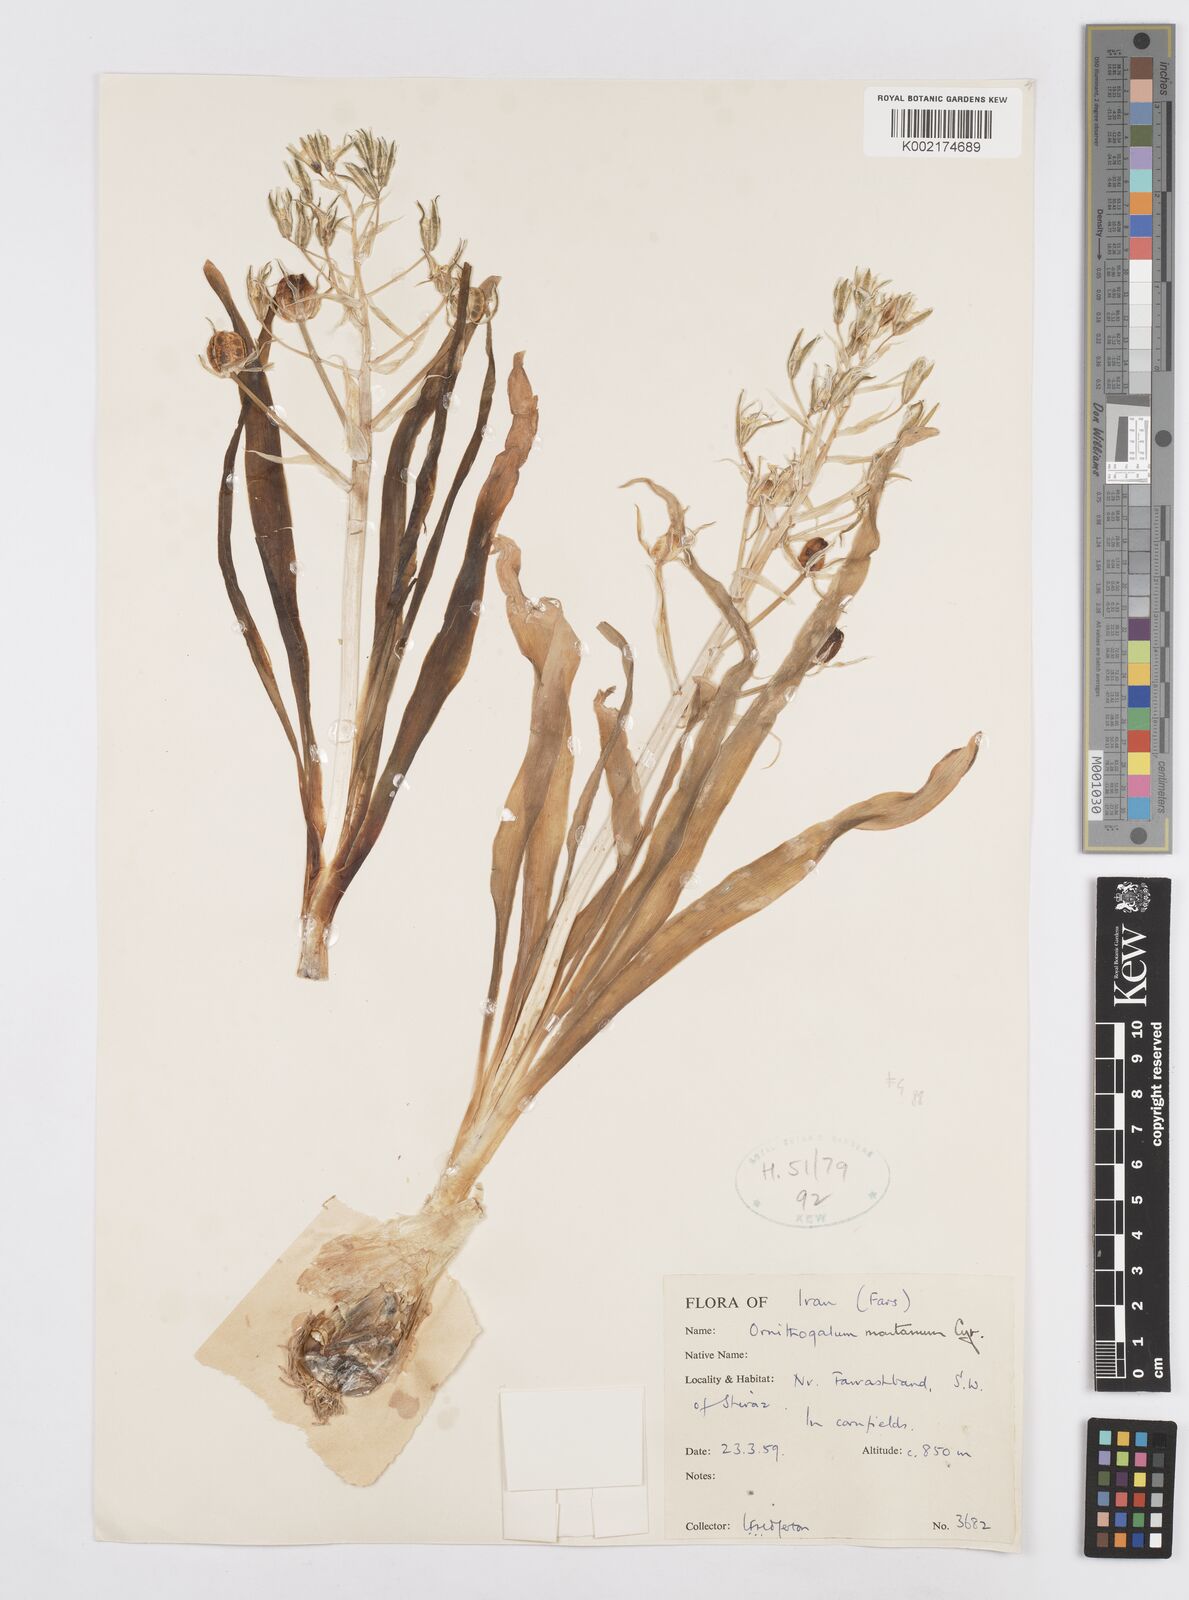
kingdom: Plantae
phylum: Tracheophyta
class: Liliopsida
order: Asparagales
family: Asparagaceae
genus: Ornithogalum
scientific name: Ornithogalum
